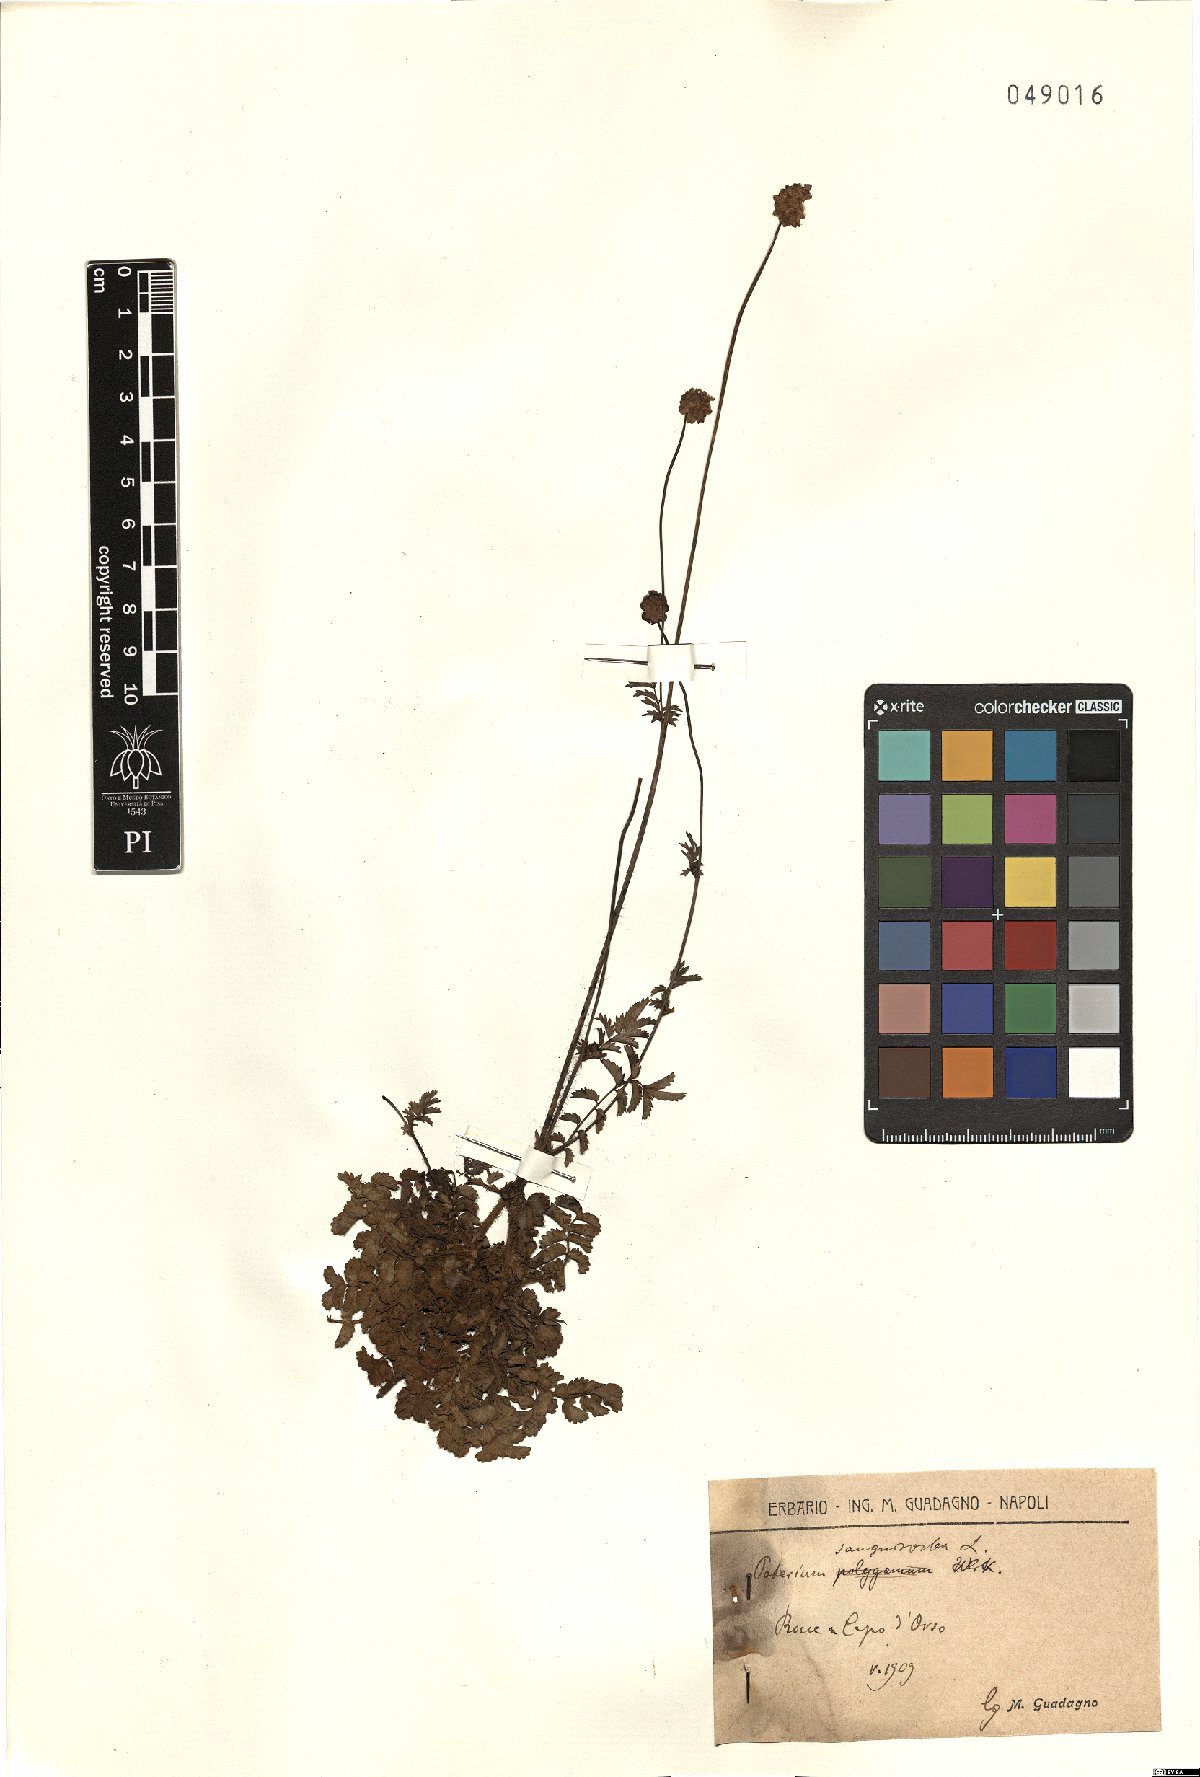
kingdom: Plantae
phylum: Tracheophyta
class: Magnoliopsida
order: Rosales
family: Rosaceae
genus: Poterium
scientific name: Poterium sanguisorba
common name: Salad burnet
